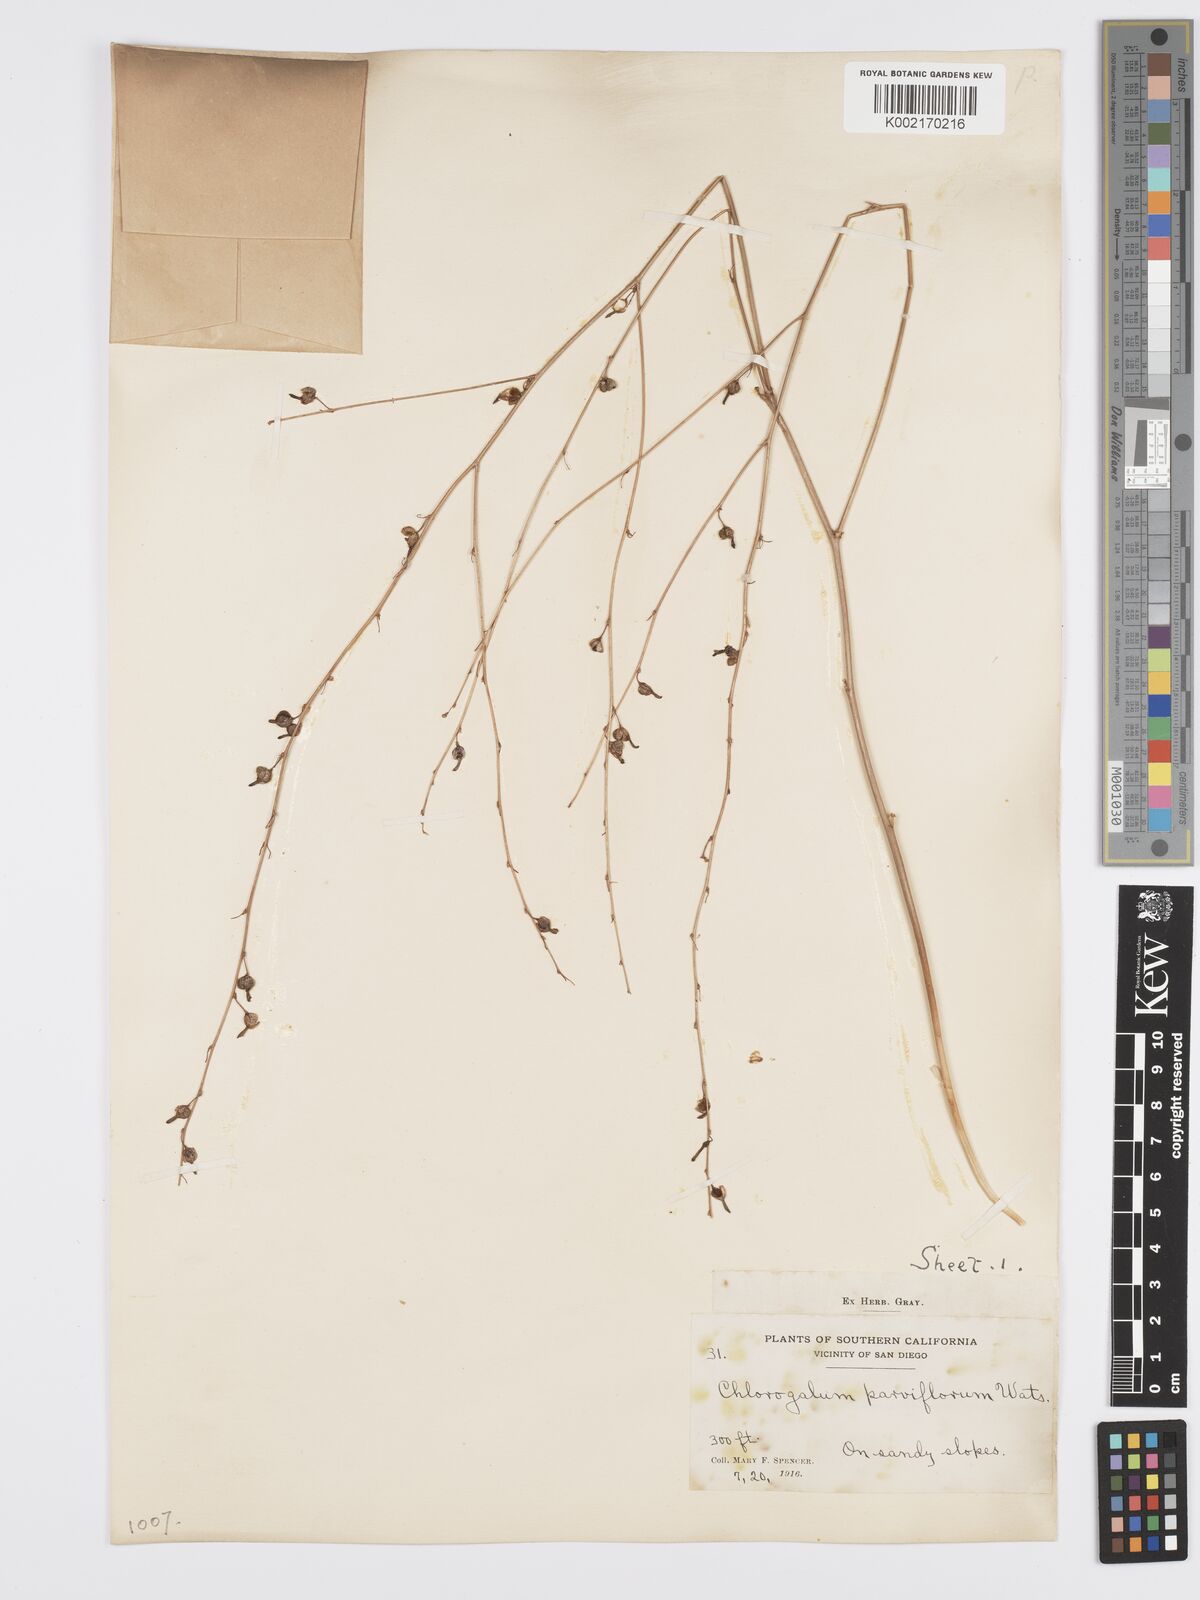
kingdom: Plantae
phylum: Tracheophyta
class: Liliopsida
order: Asparagales
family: Asparagaceae
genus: Hooveria
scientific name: Hooveria parviflora
